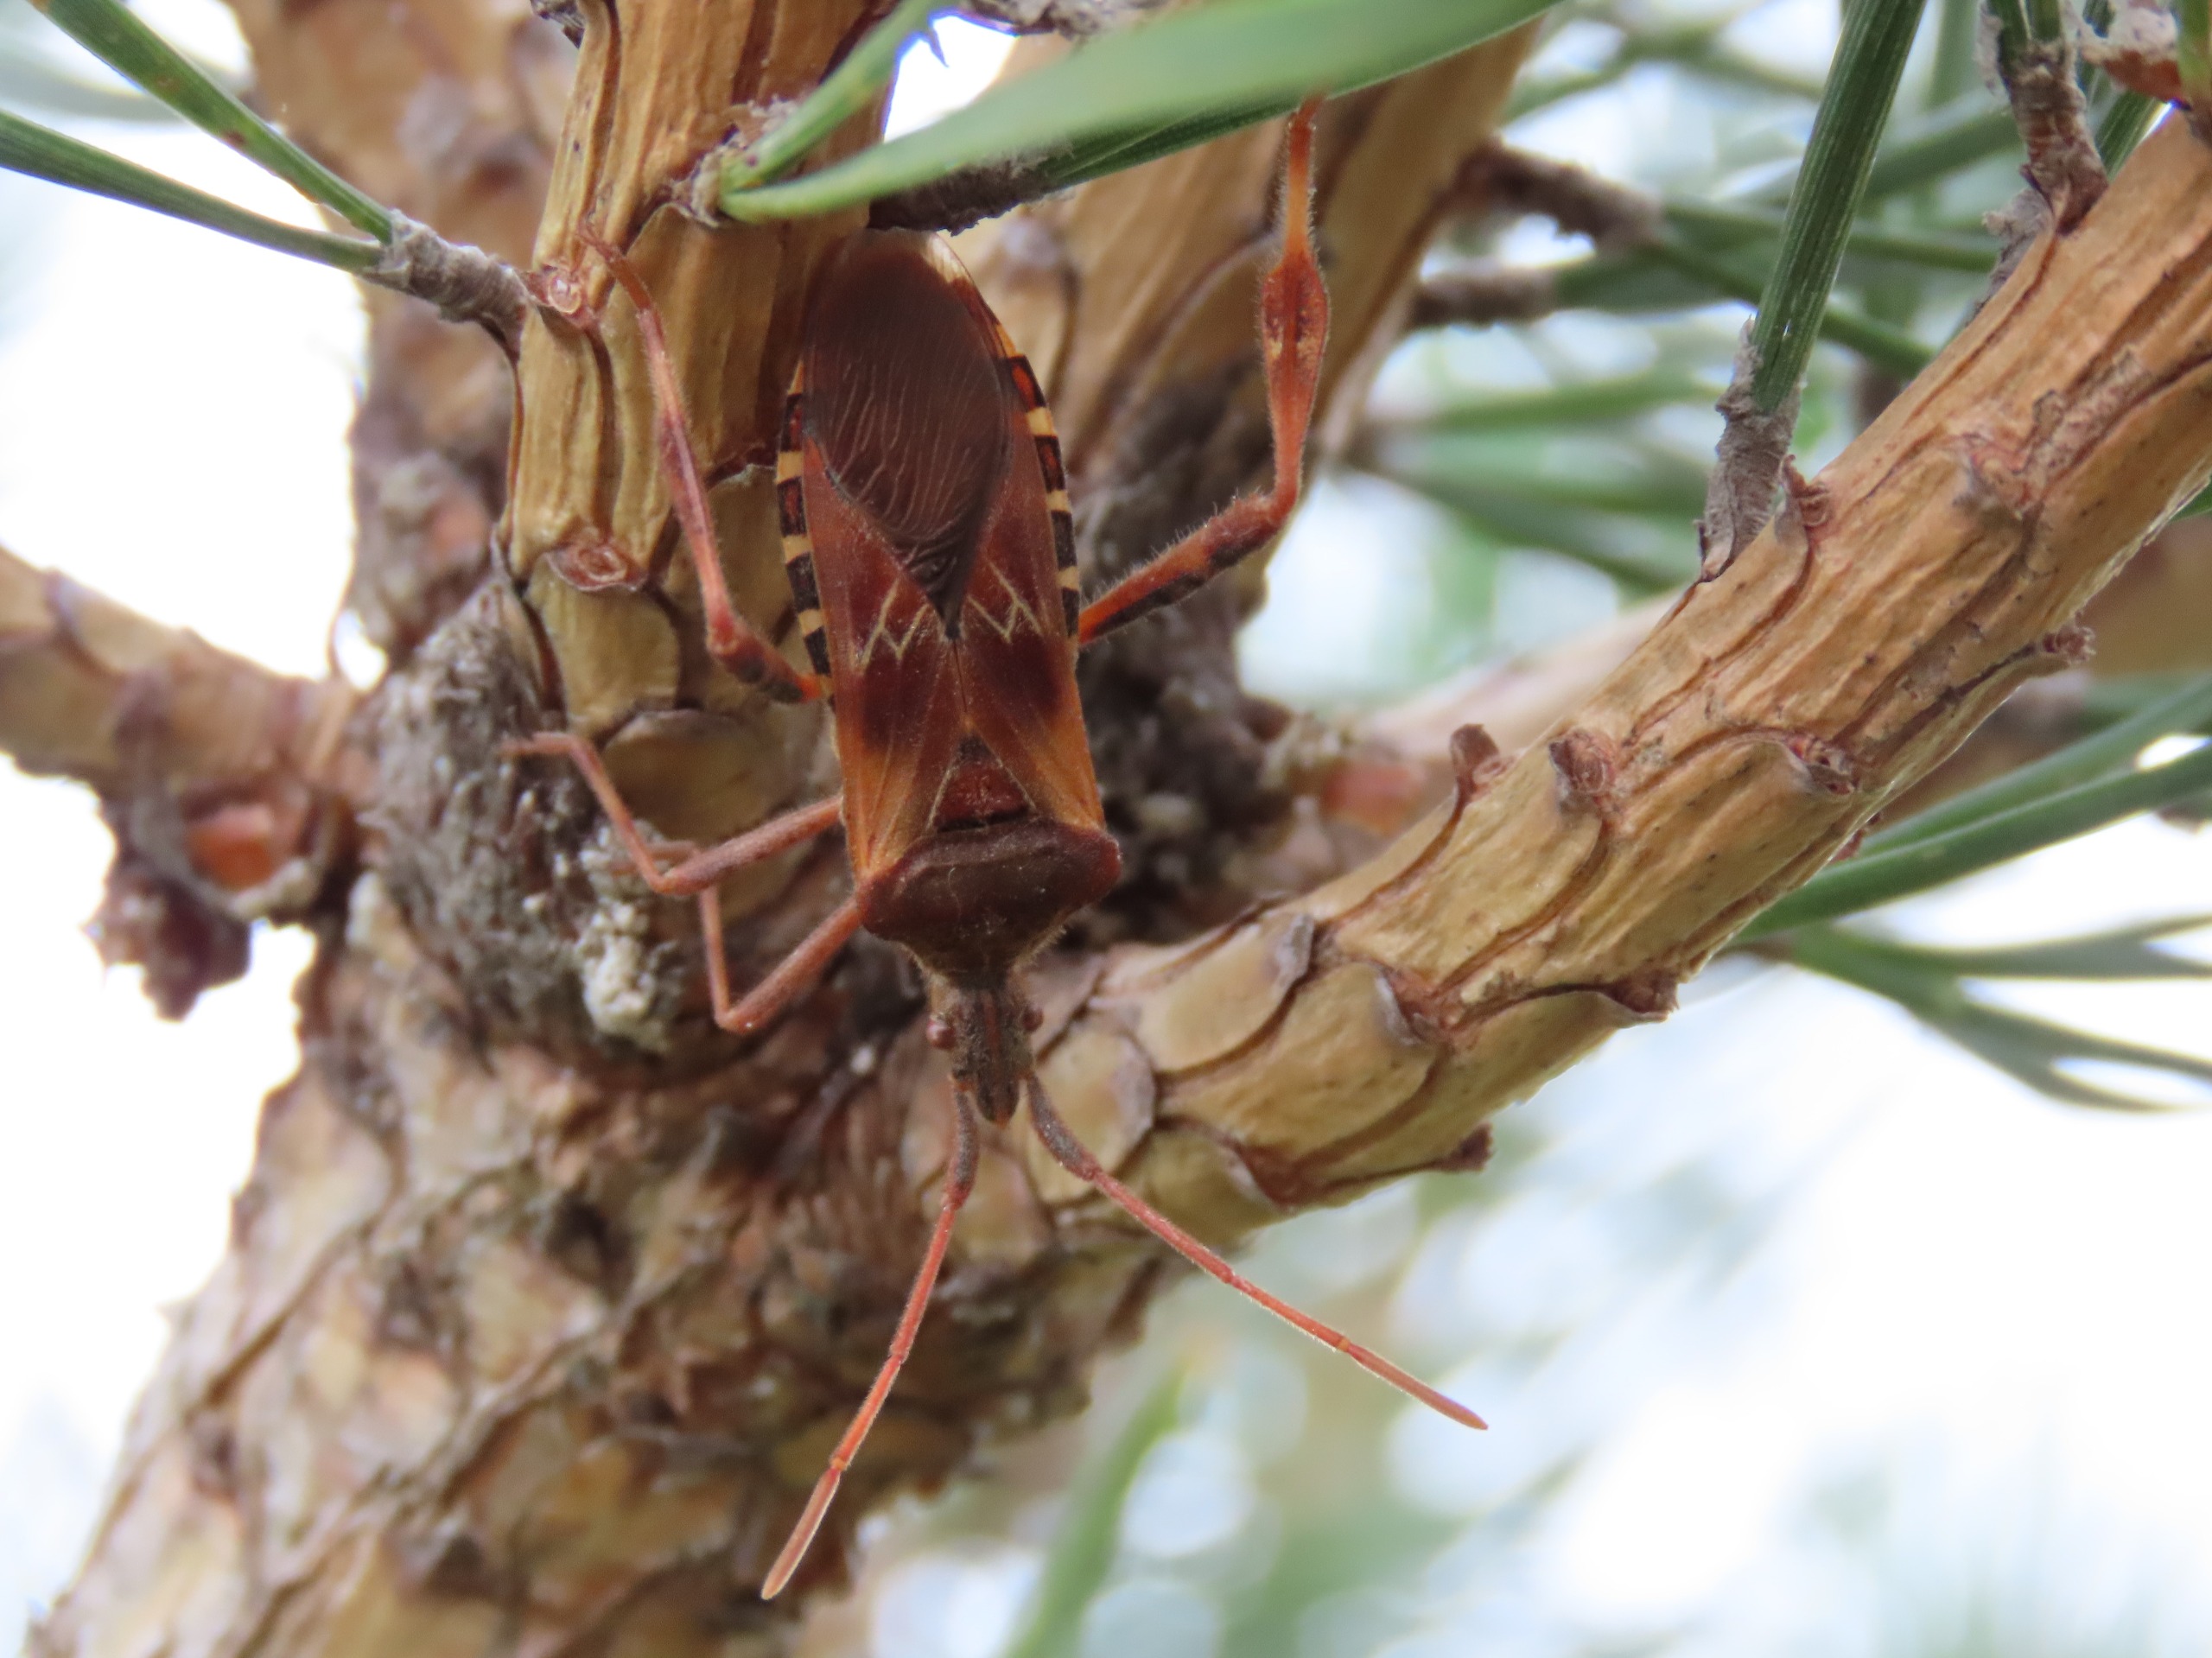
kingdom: Animalia
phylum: Arthropoda
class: Insecta
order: Hemiptera
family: Coreidae
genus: Leptoglossus
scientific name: Leptoglossus occidentalis
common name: Amerikansk fyrretæge
